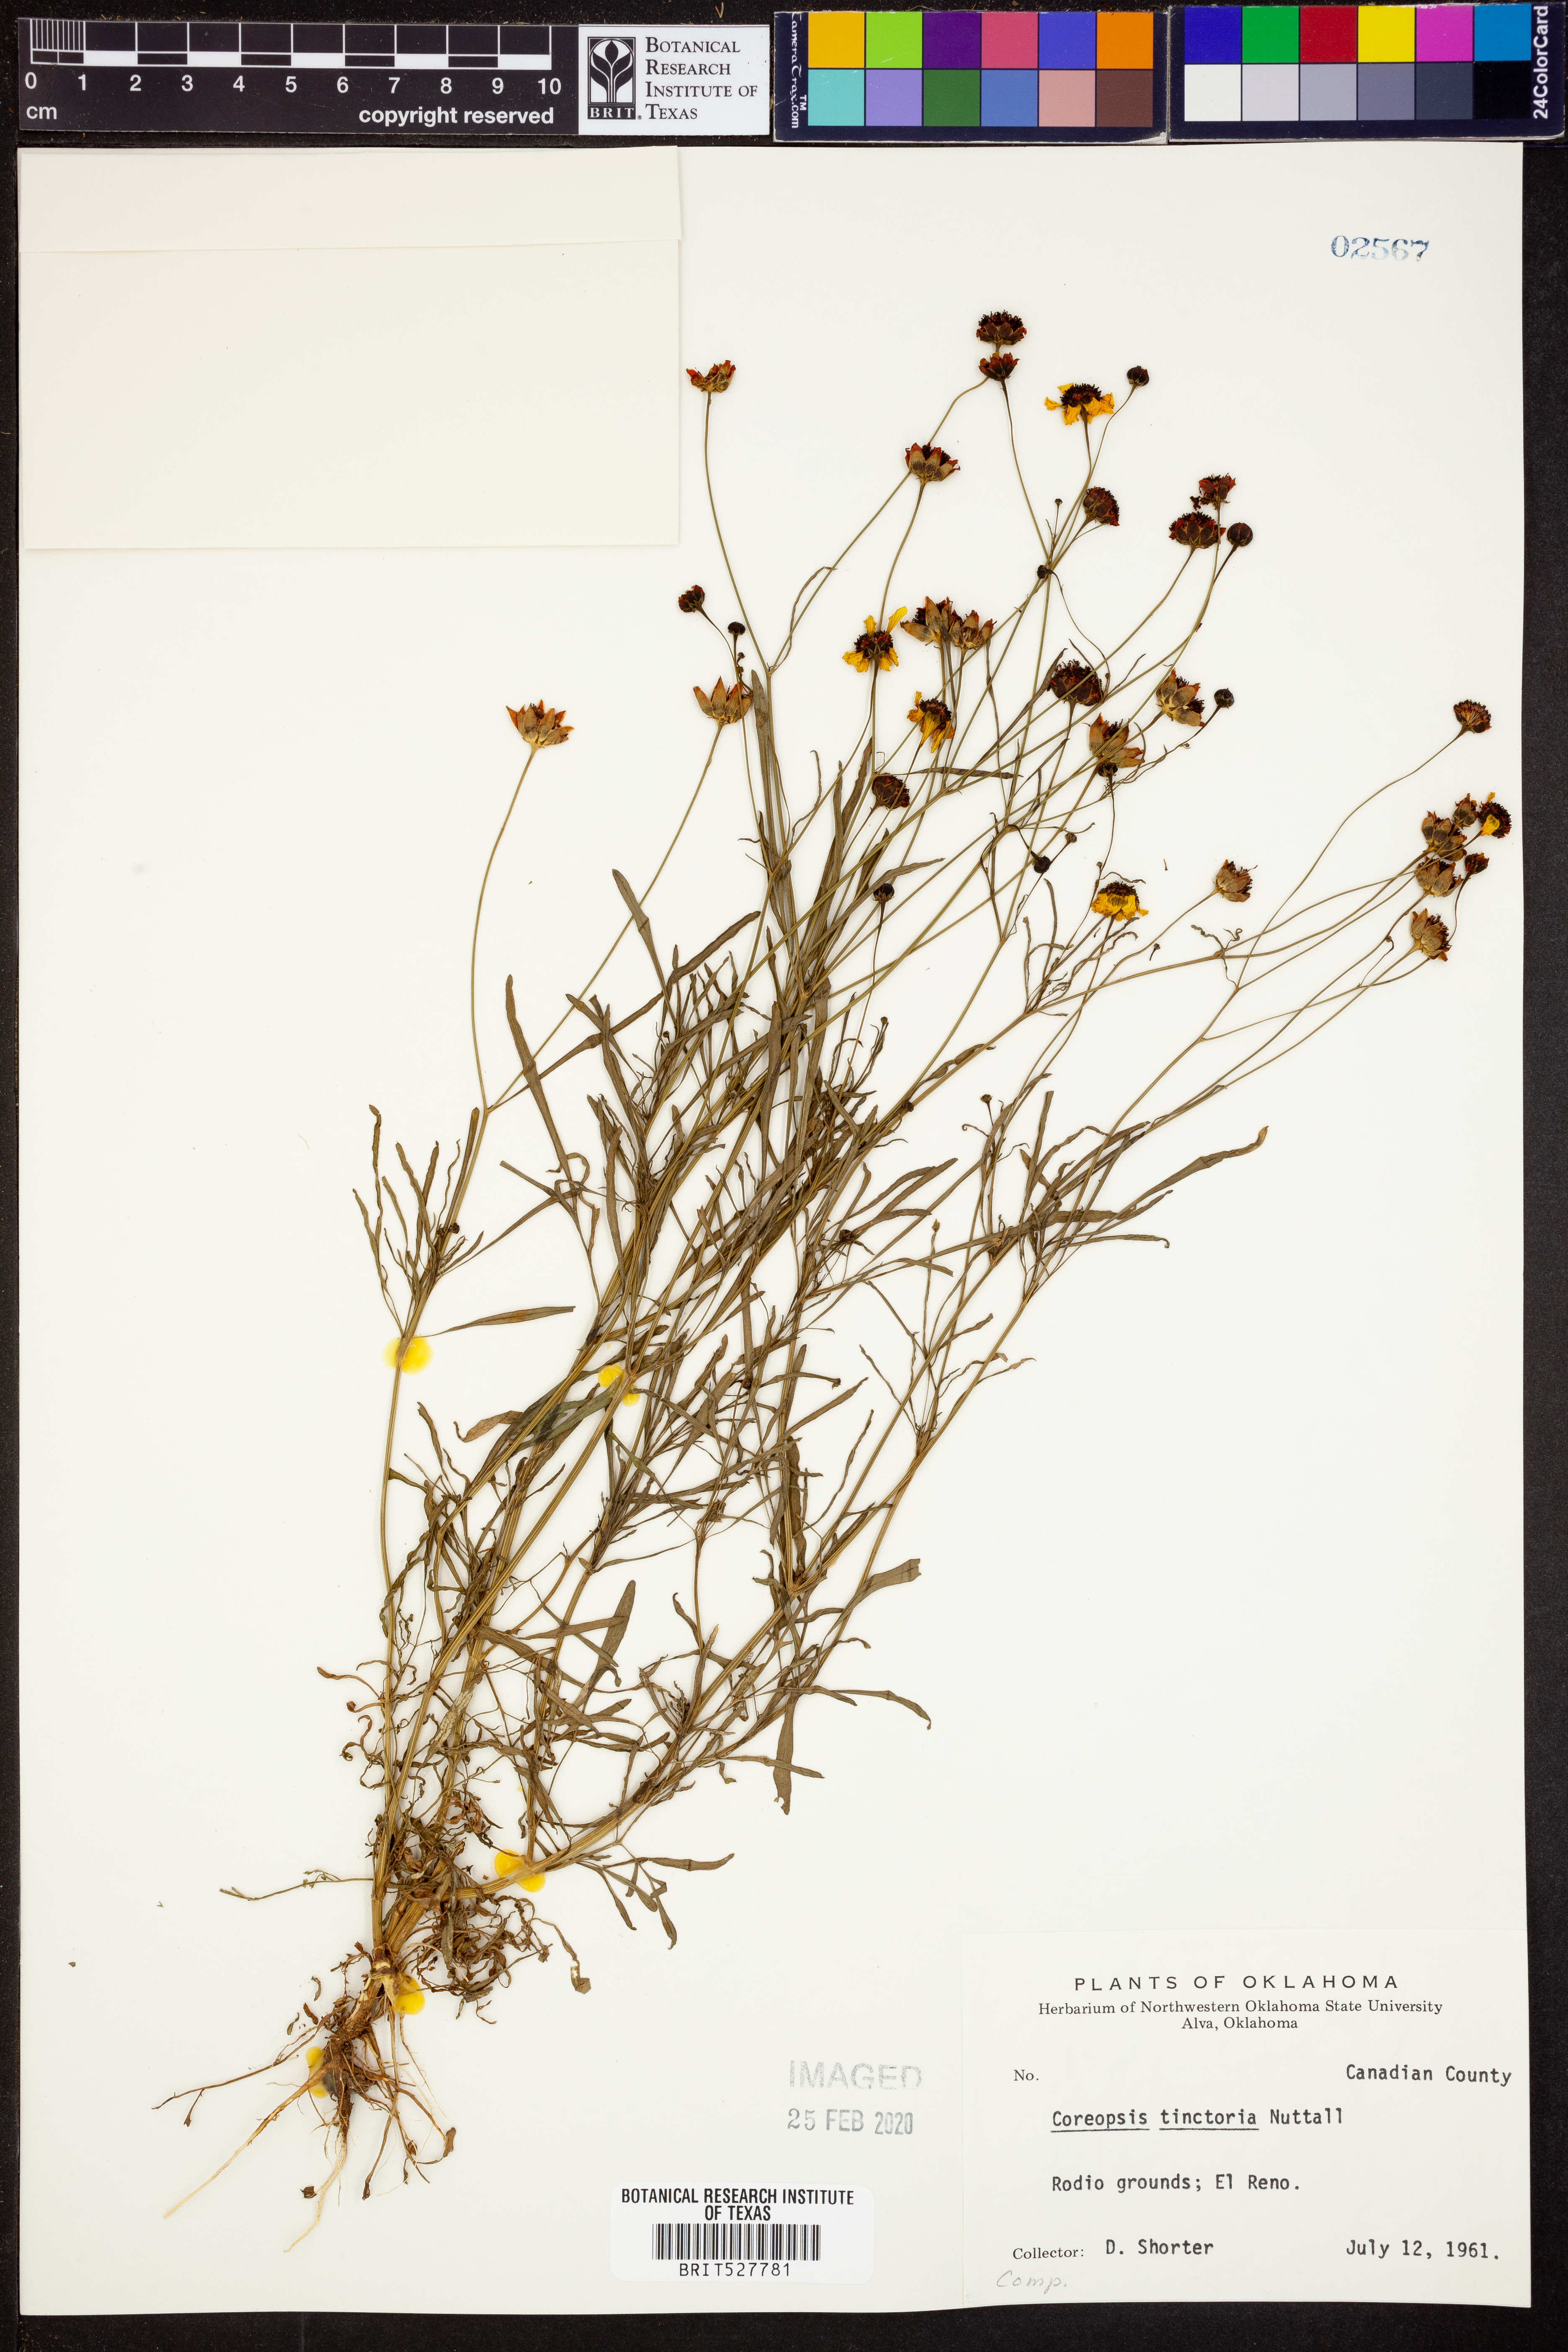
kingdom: Plantae
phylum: Tracheophyta
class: Magnoliopsida
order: Asterales
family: Asteraceae
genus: Coreopsis
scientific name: Coreopsis tinctoria
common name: Garden tickseed
